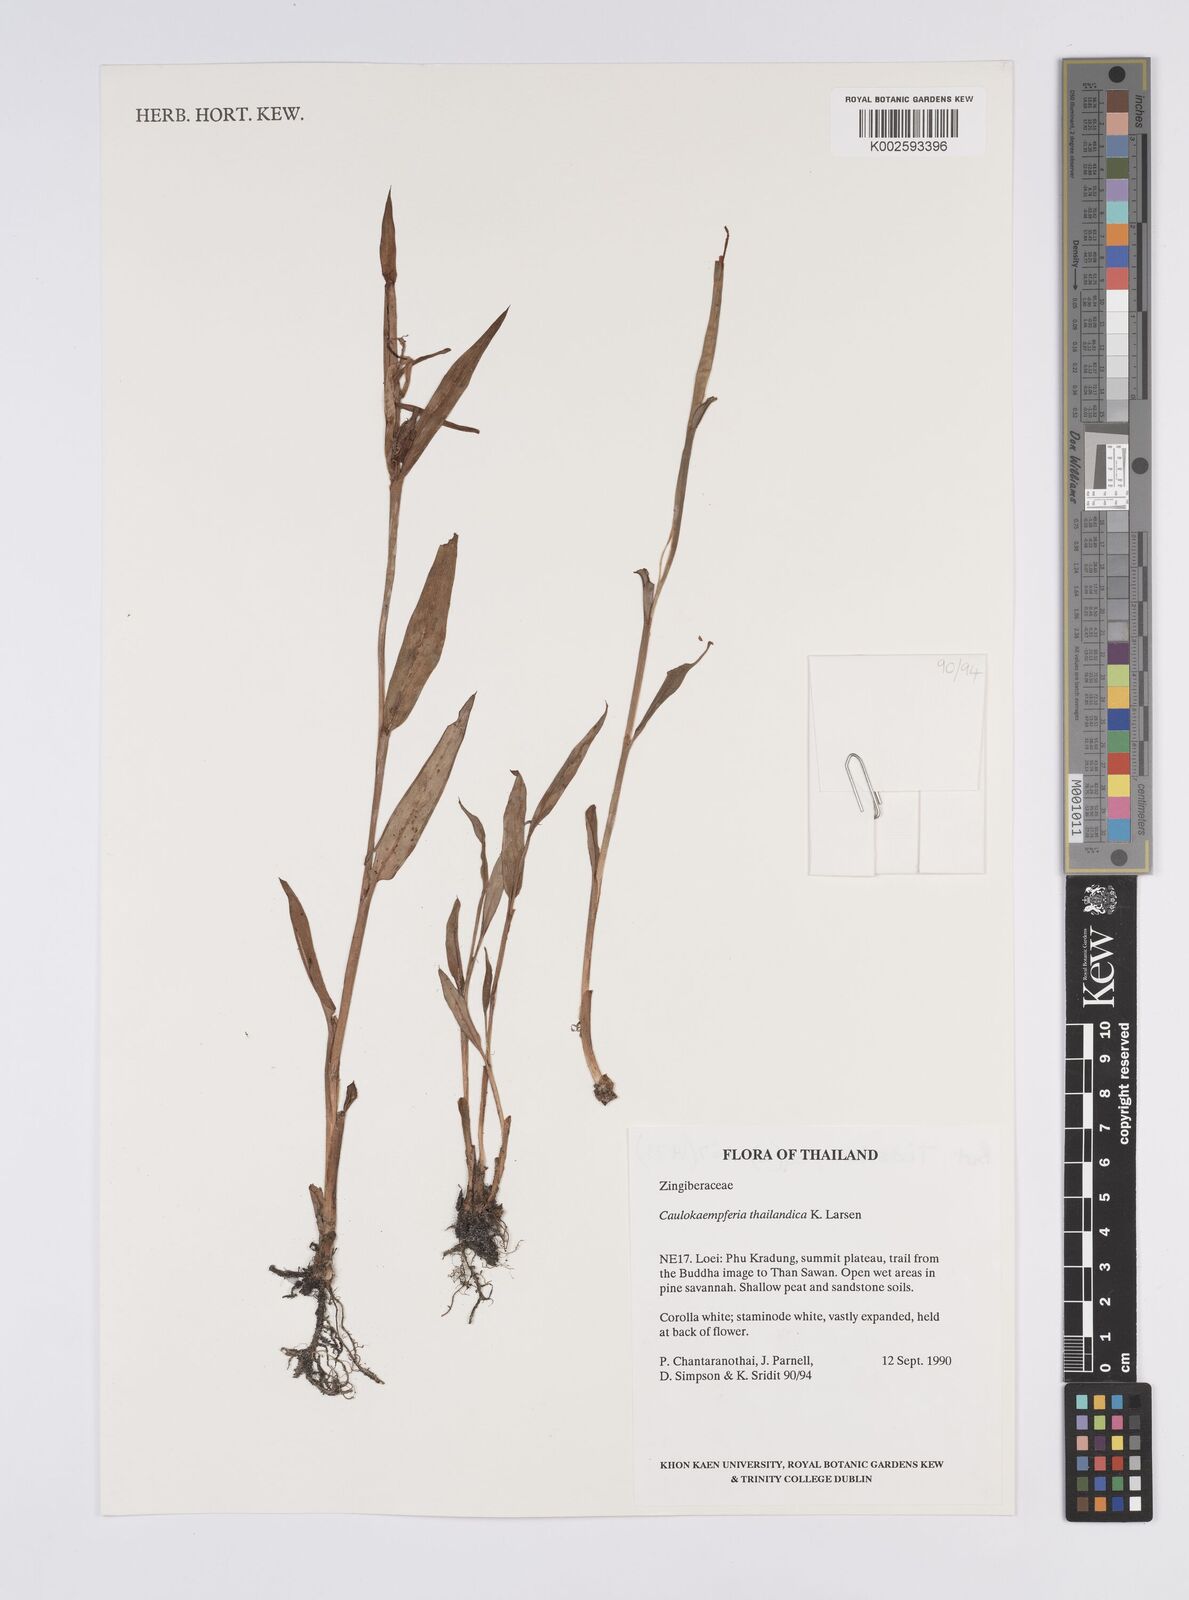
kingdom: Plantae
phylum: Tracheophyta
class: Liliopsida
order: Zingiberales
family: Zingiberaceae
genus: Boesenbergia
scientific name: Boesenbergia thailandica
